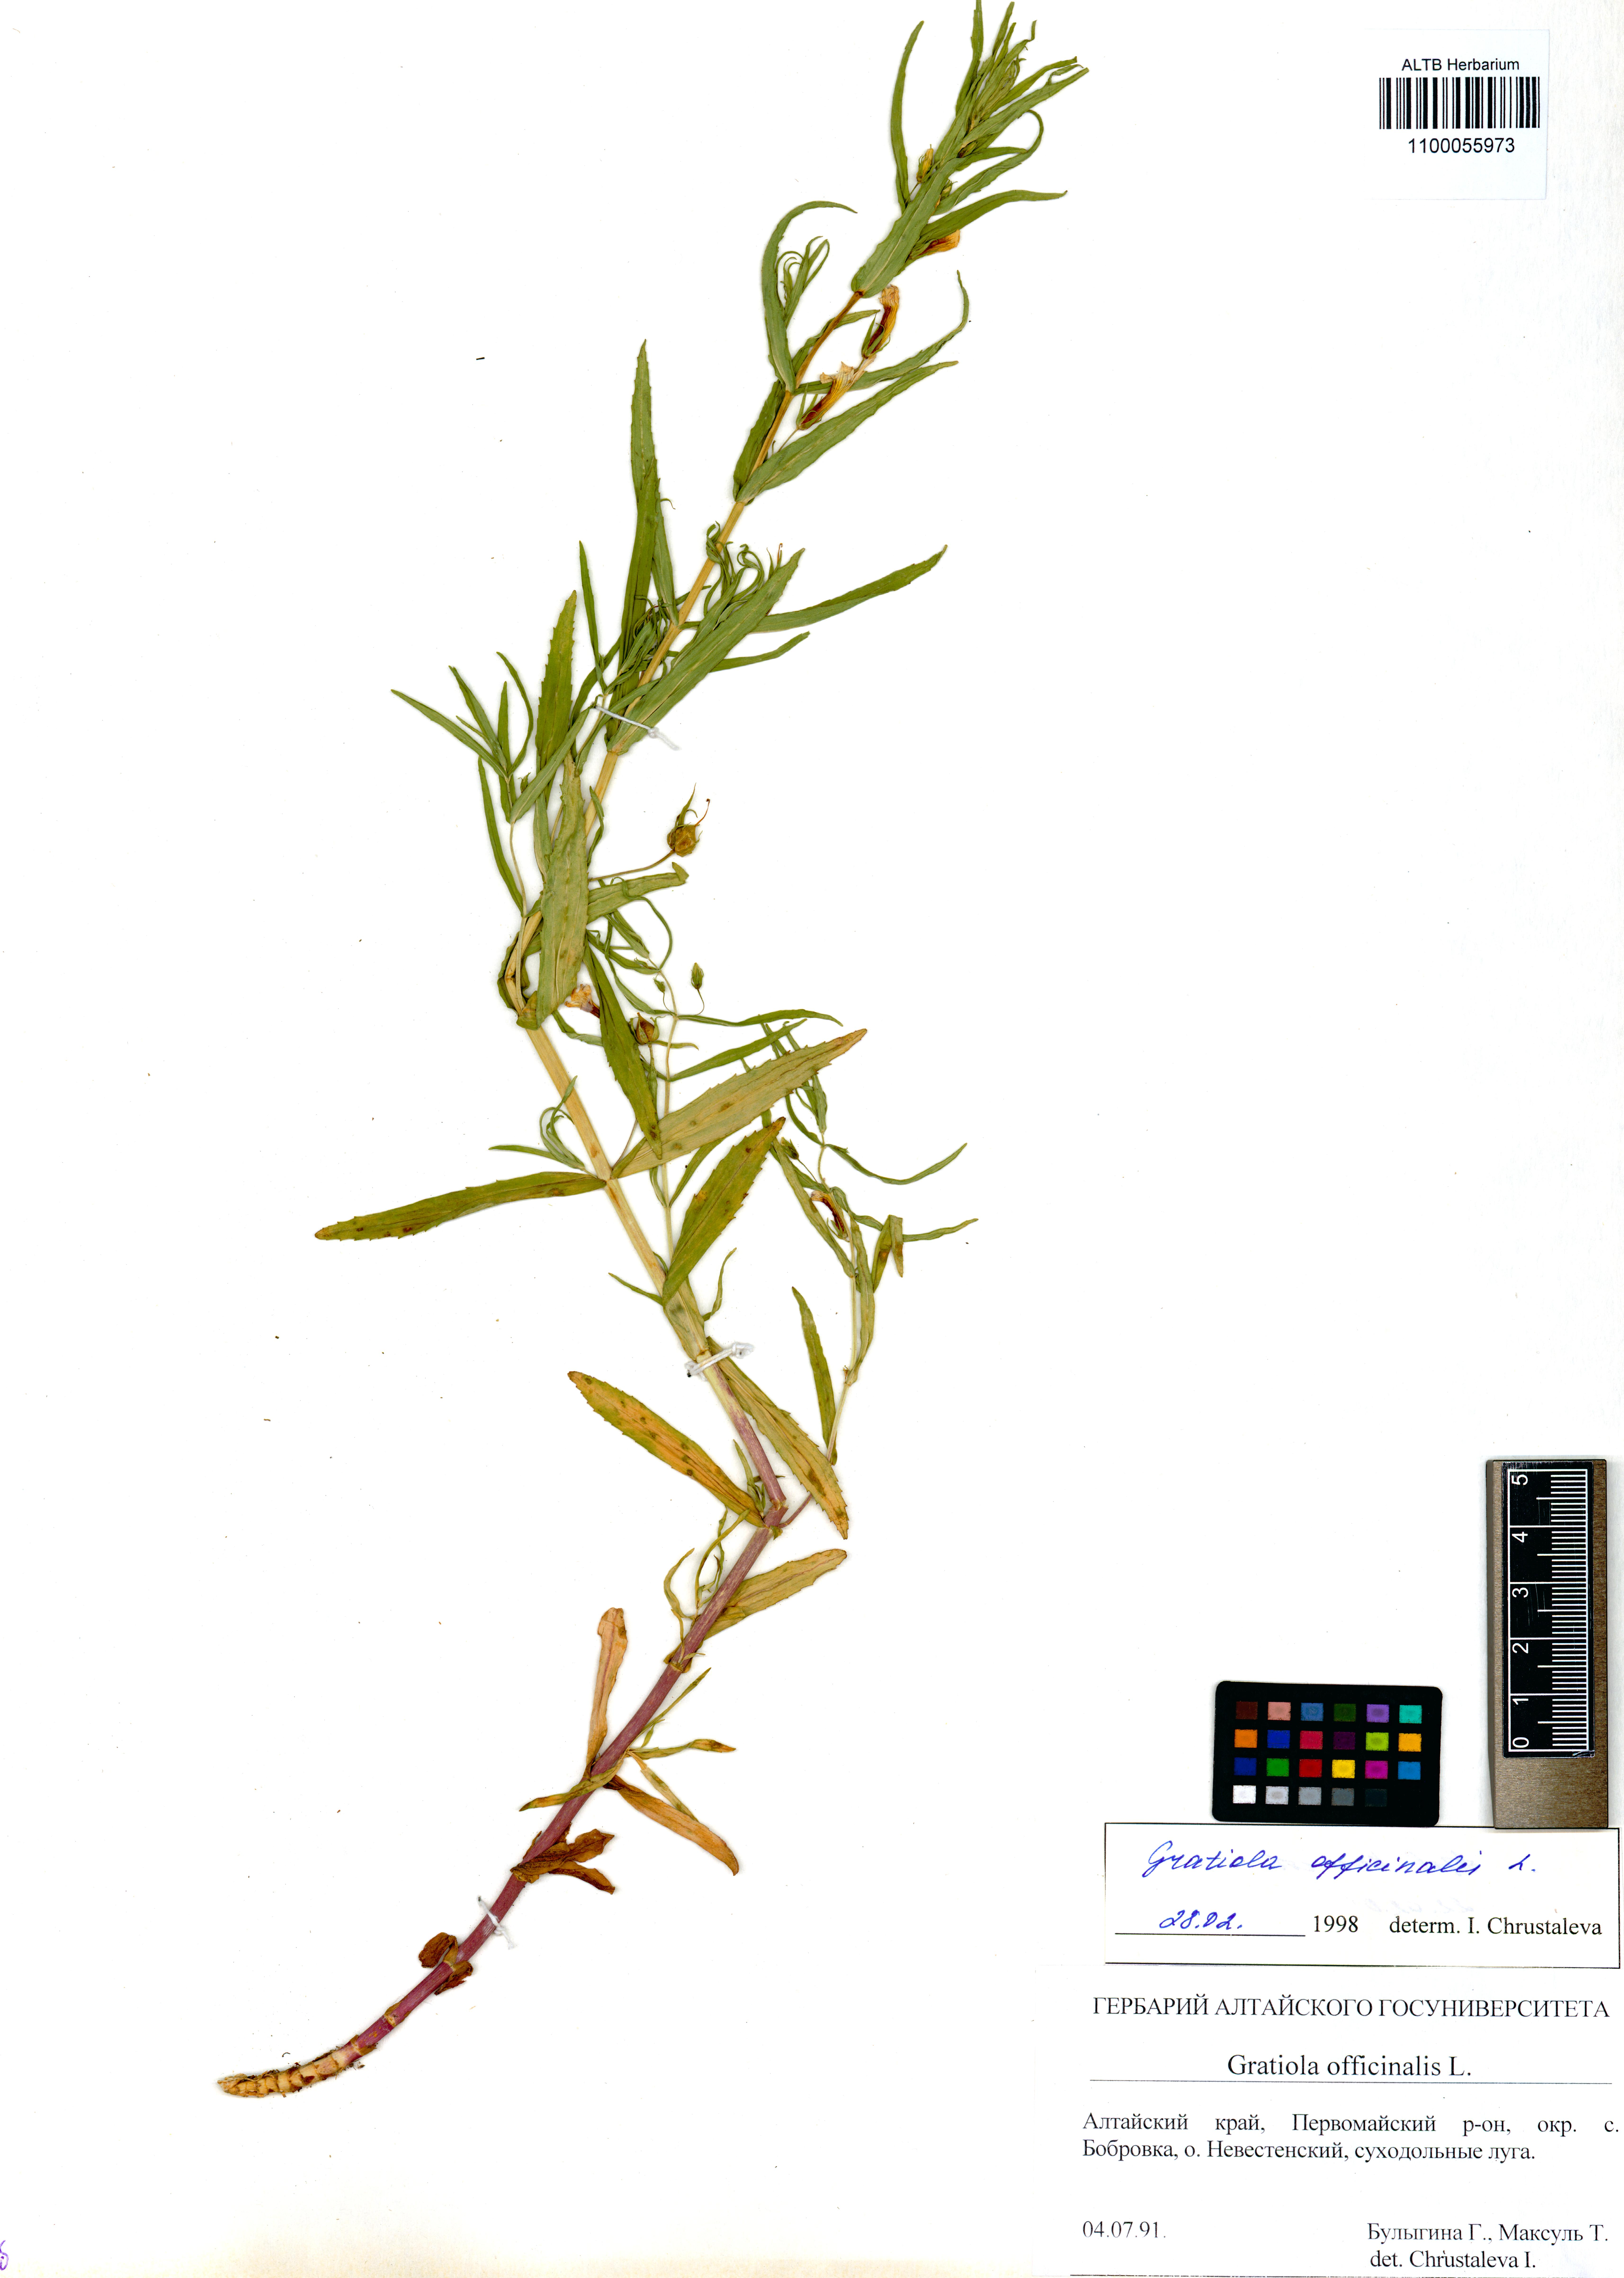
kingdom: Plantae
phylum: Tracheophyta
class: Magnoliopsida
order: Lamiales
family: Plantaginaceae
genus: Gratiola
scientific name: Gratiola officinalis
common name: Gratiola
